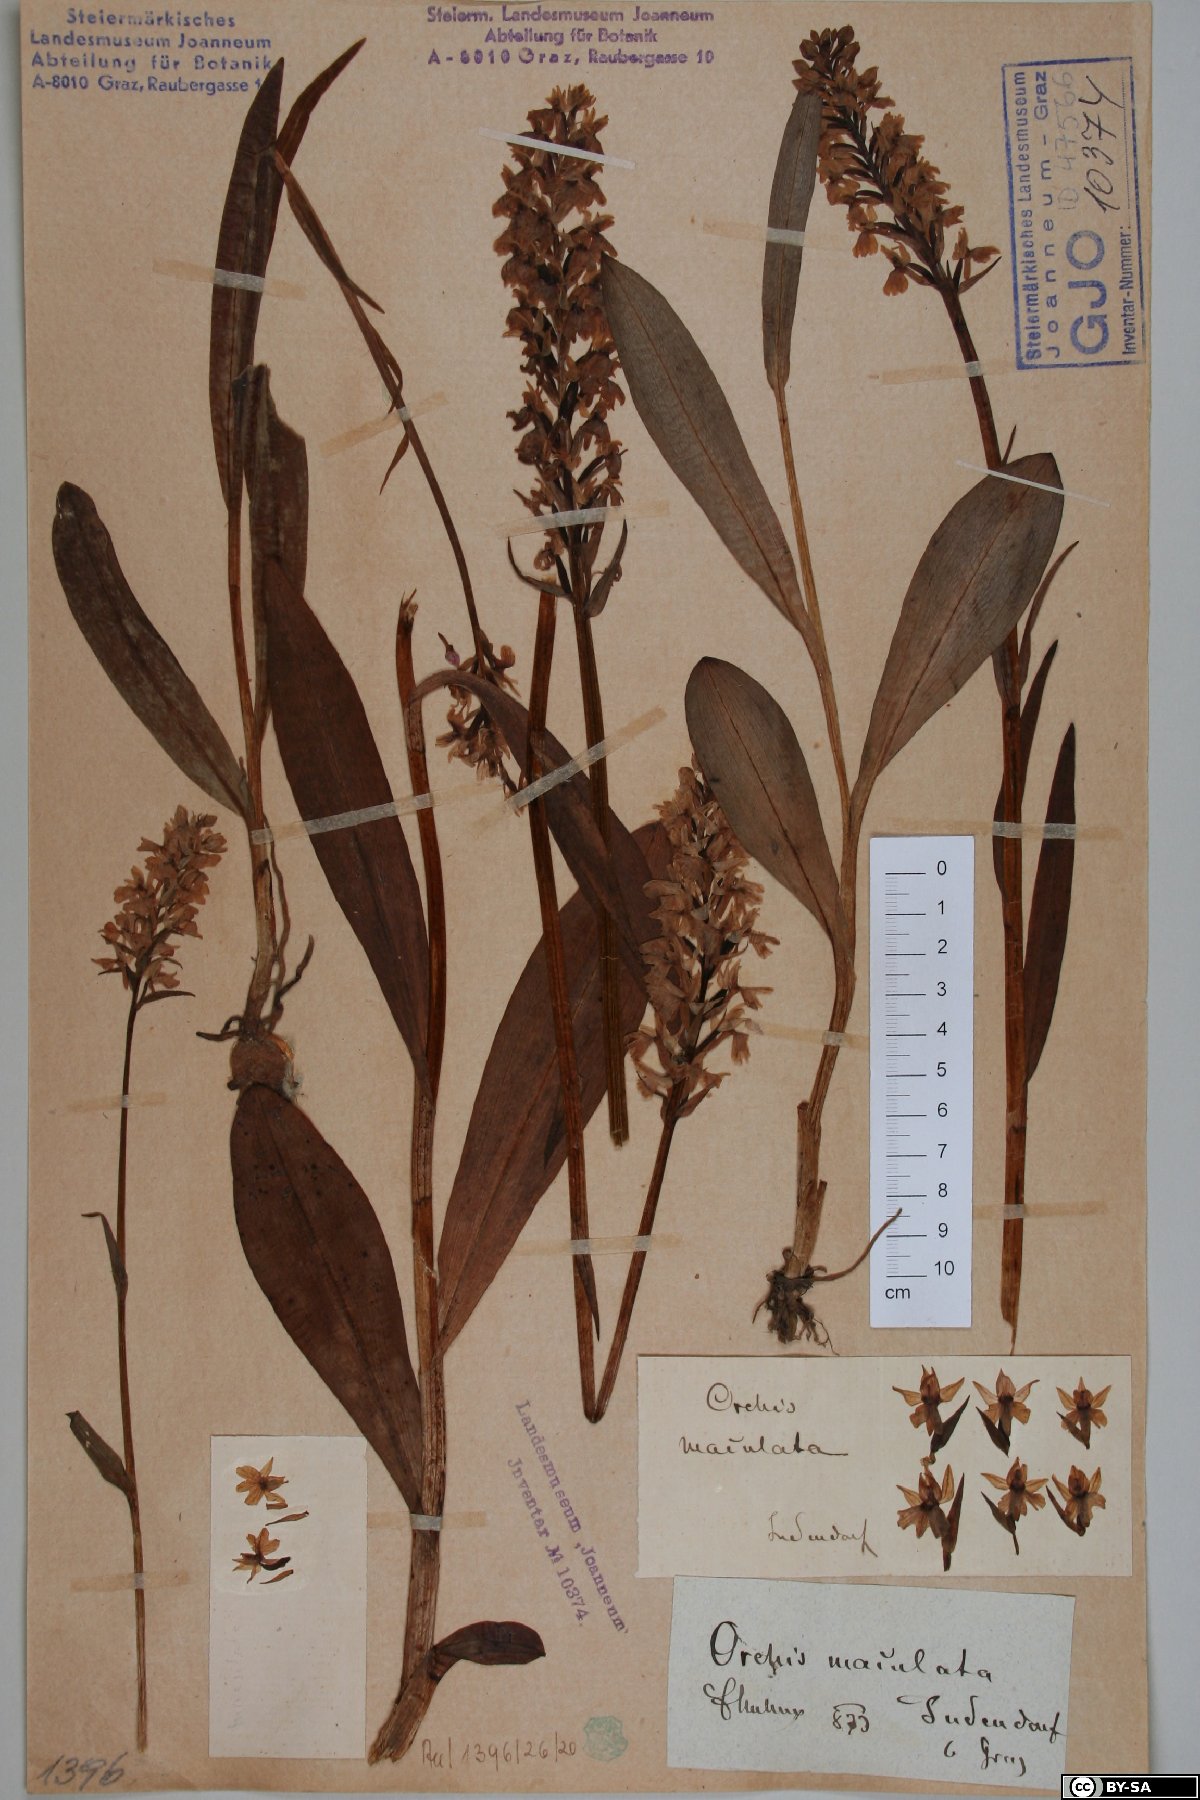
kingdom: Plantae
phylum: Tracheophyta
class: Liliopsida
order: Asparagales
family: Orchidaceae
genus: Dactylorhiza
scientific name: Dactylorhiza maculata
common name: Heath spotted-orchid
